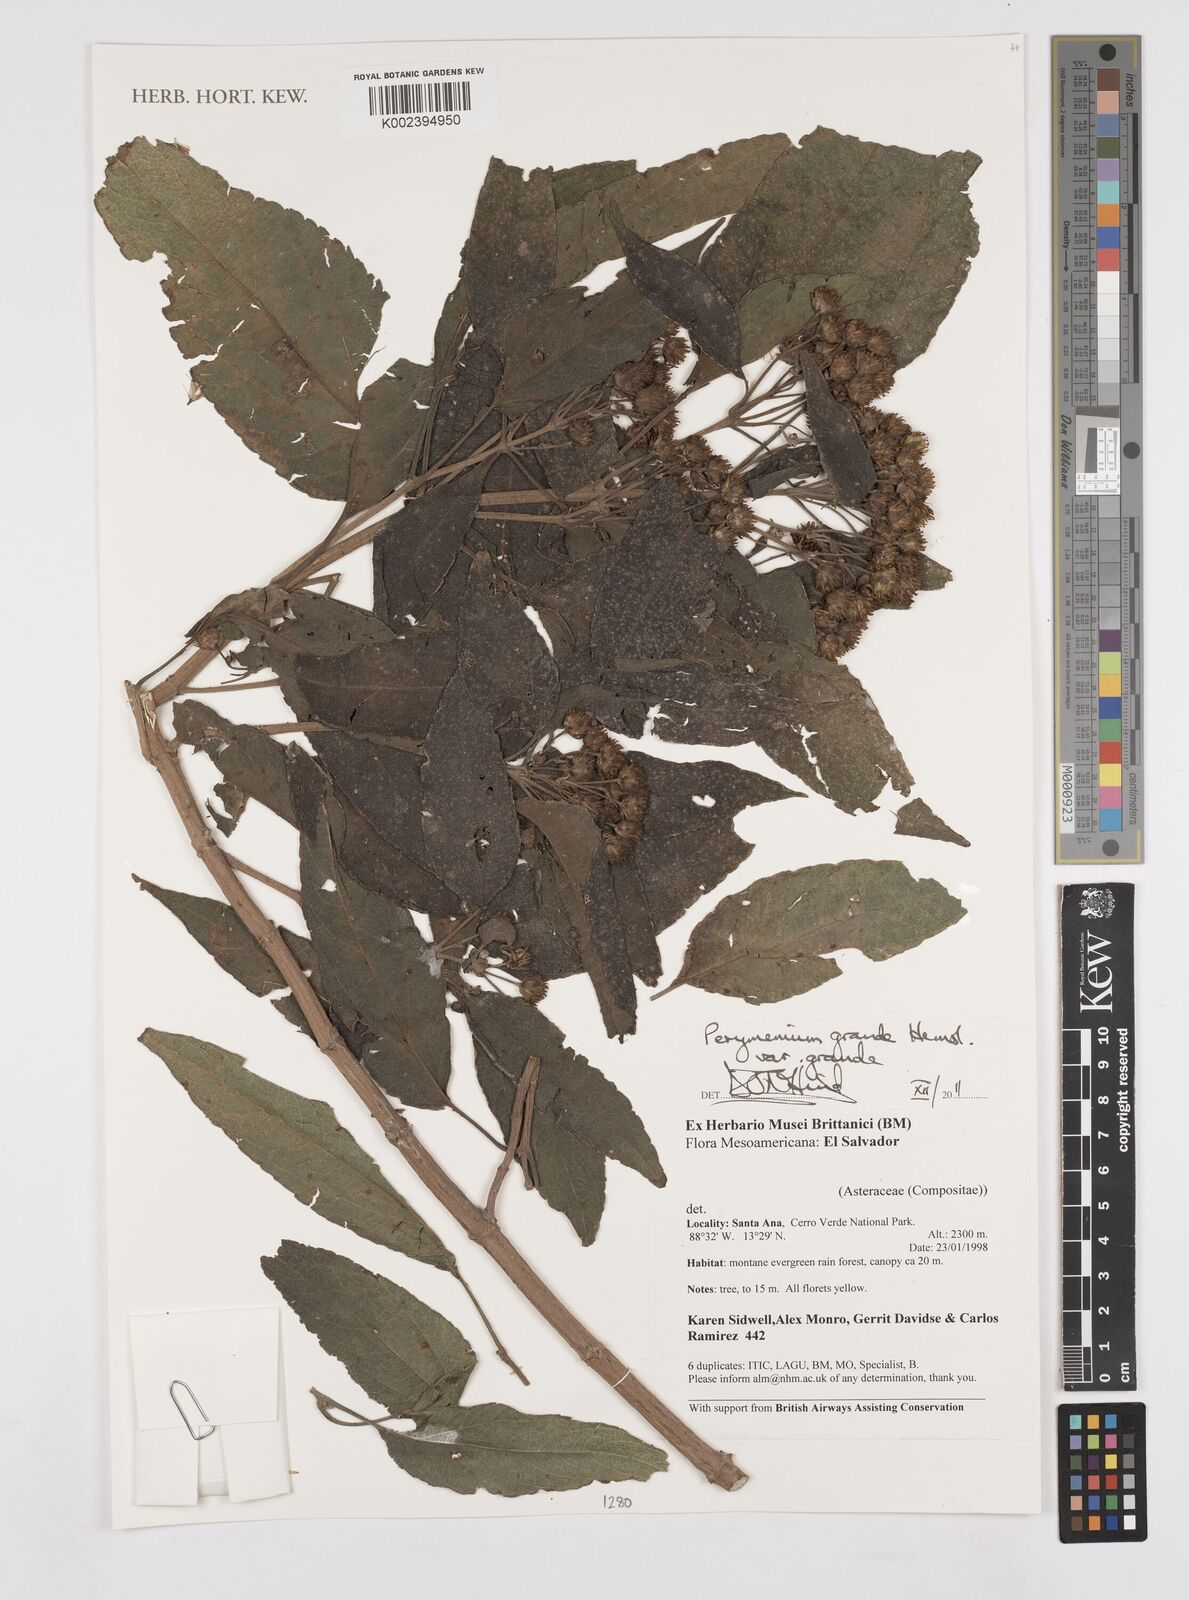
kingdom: Plantae
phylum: Tracheophyta
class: Magnoliopsida
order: Asterales
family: Asteraceae
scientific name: Asteraceae
